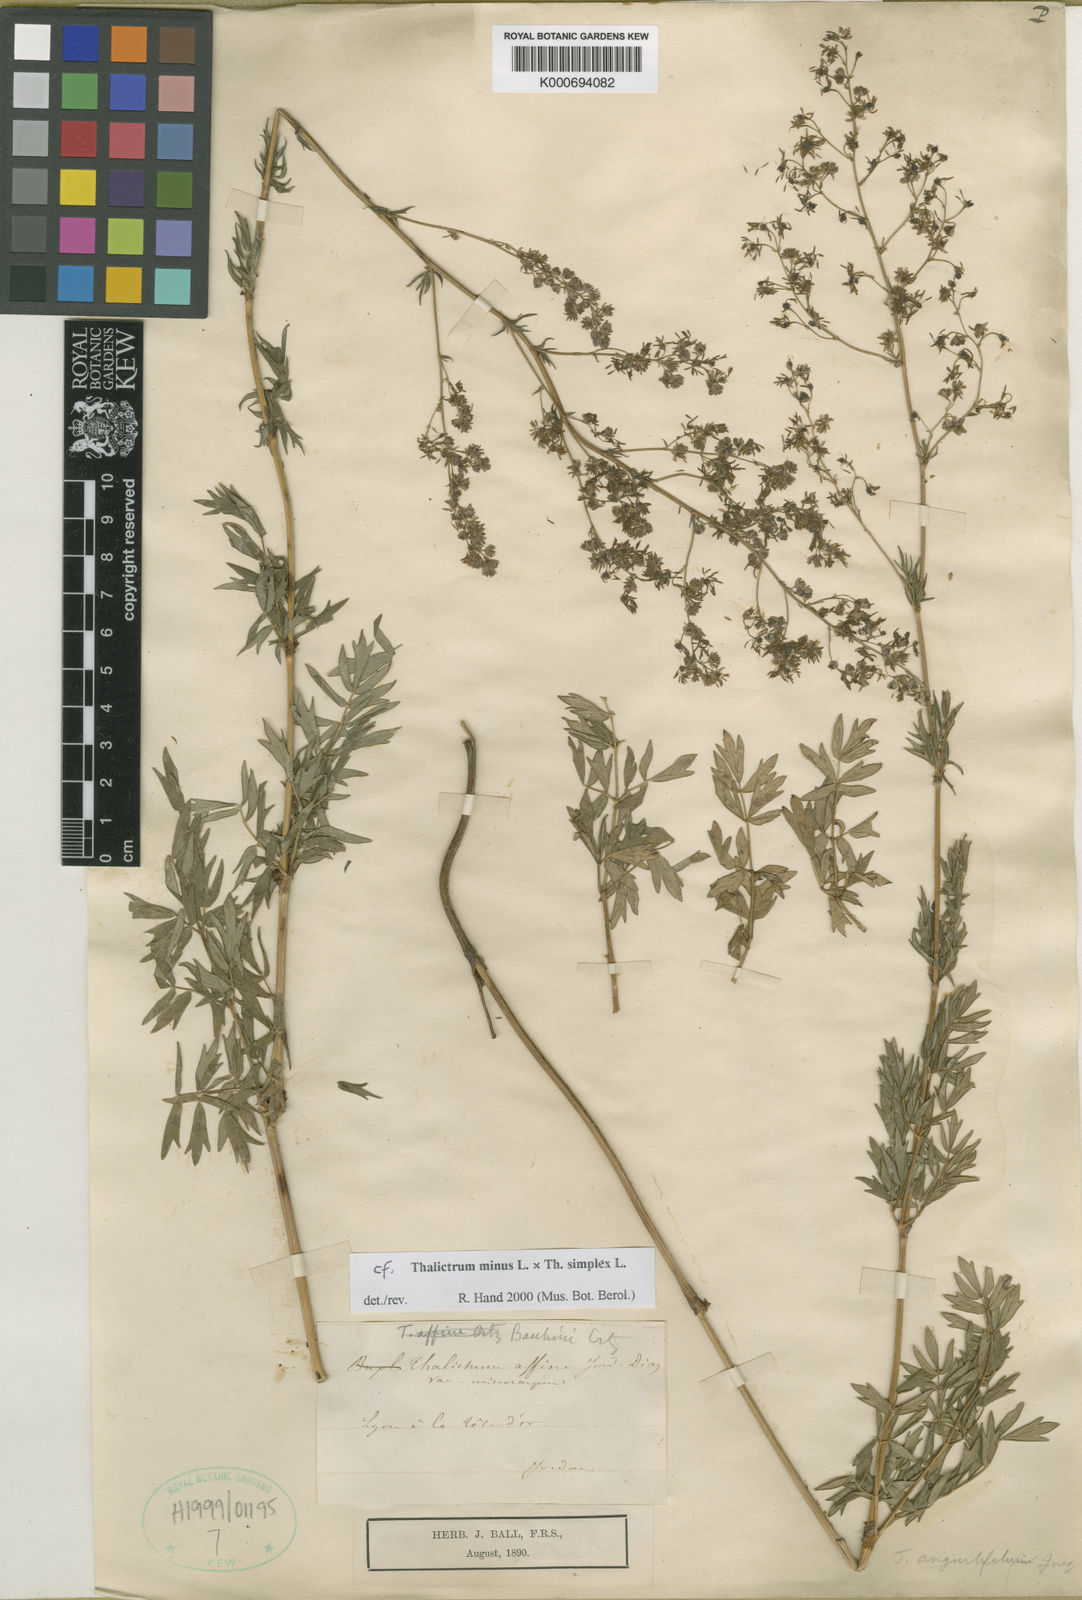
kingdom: Plantae
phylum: Tracheophyta
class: Magnoliopsida
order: Ranunculales
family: Ranunculaceae
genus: Thalictrum
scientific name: Thalictrum minus
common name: Lesser meadow-rue
